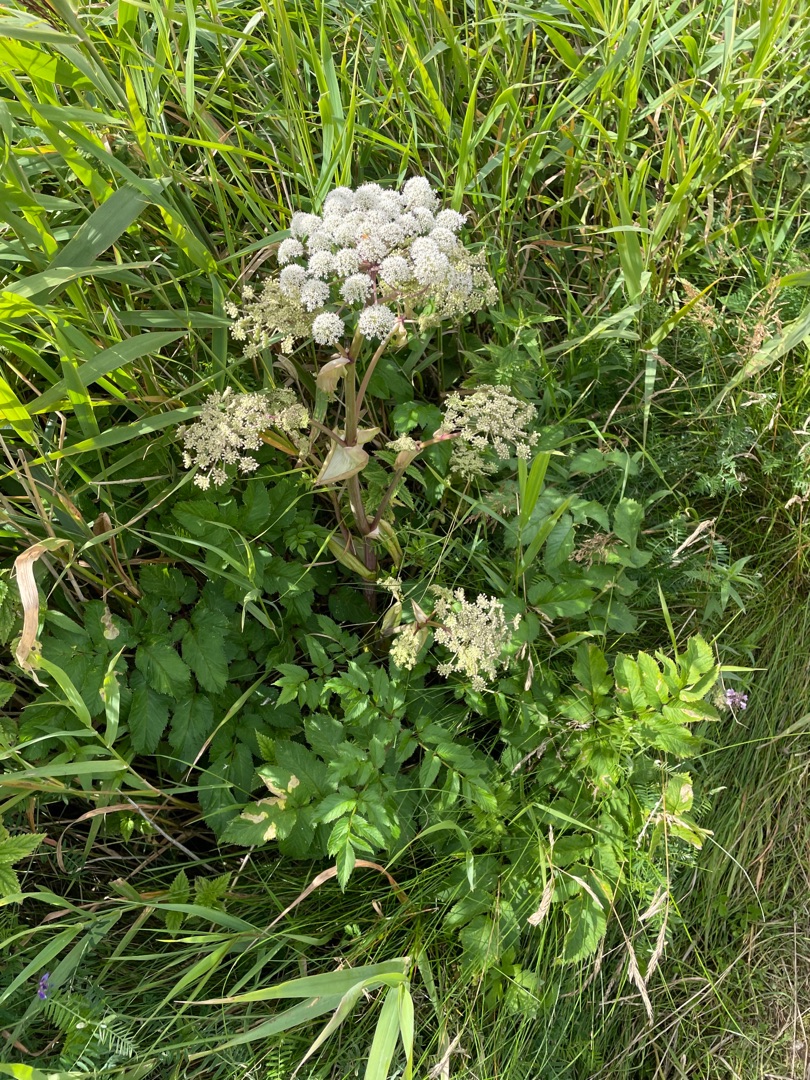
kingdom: Plantae
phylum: Tracheophyta
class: Magnoliopsida
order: Apiales
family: Apiaceae
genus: Angelica
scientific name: Angelica sylvestris
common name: Angelik
